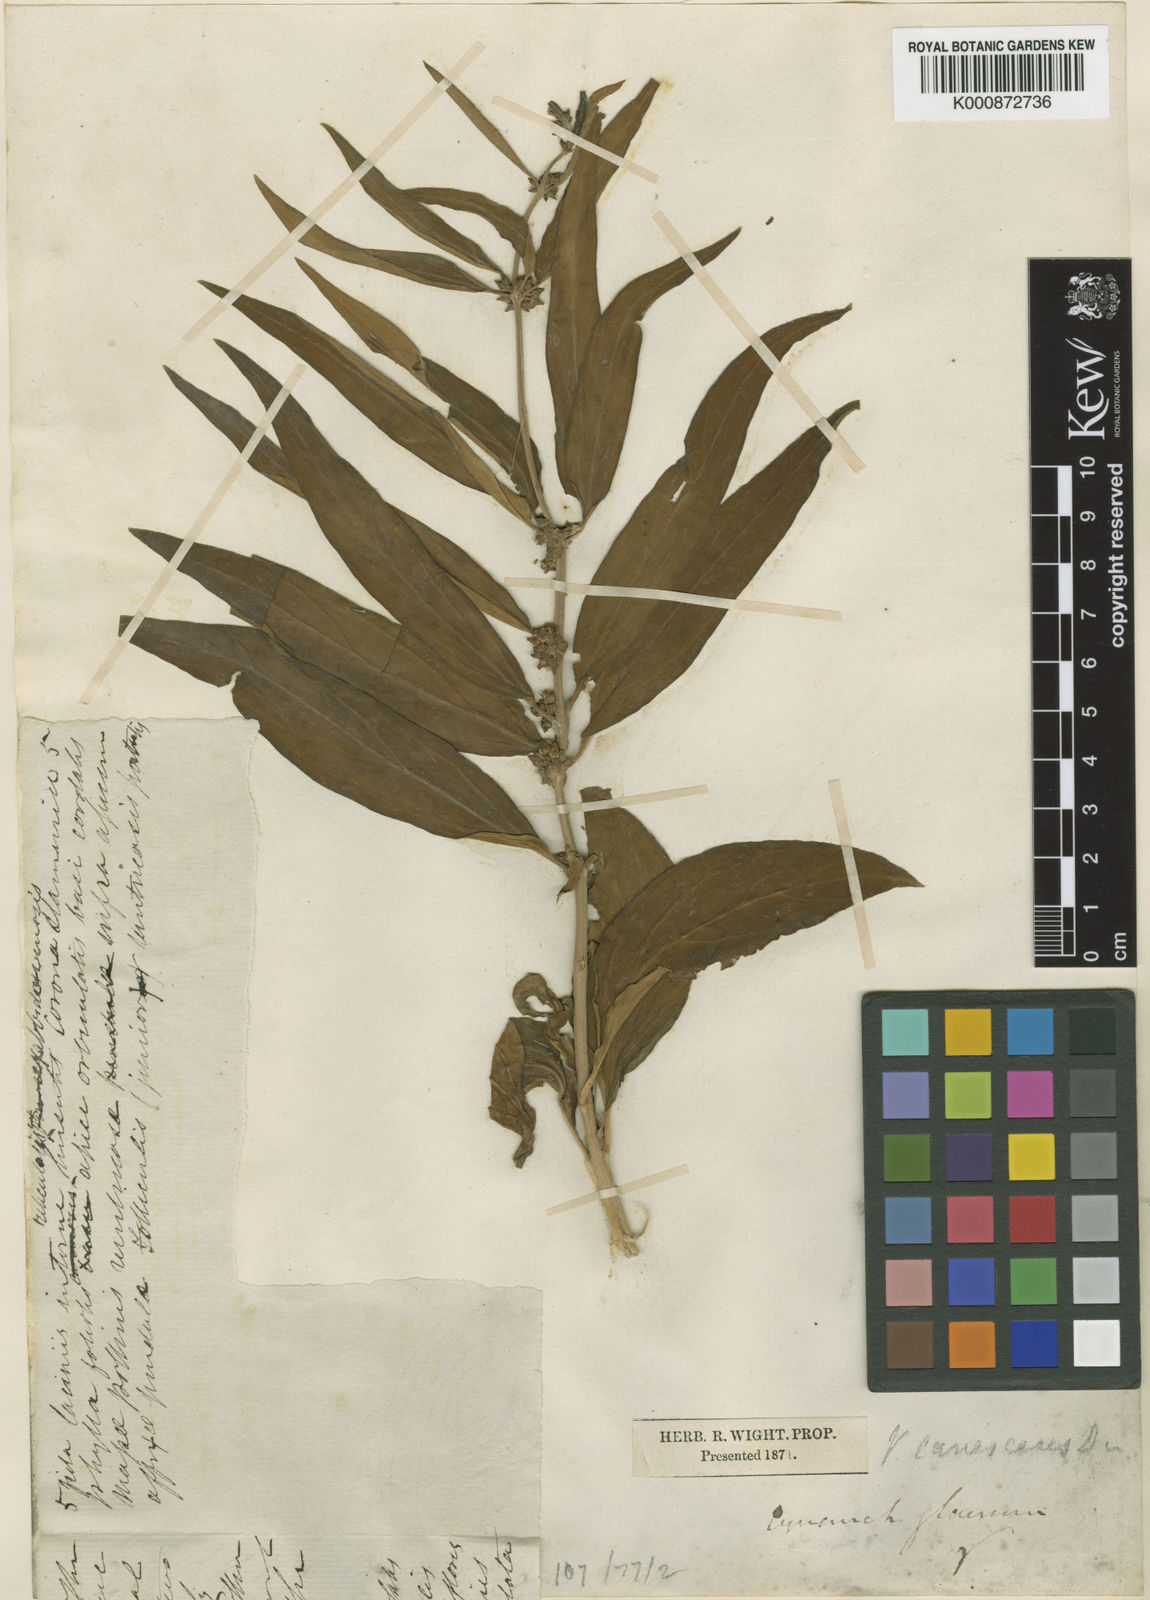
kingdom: Plantae
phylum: Tracheophyta
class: Magnoliopsida
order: Gentianales
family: Apocynaceae
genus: Vincetoxicum
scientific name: Vincetoxicum hirundinaria
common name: White swallowwort
